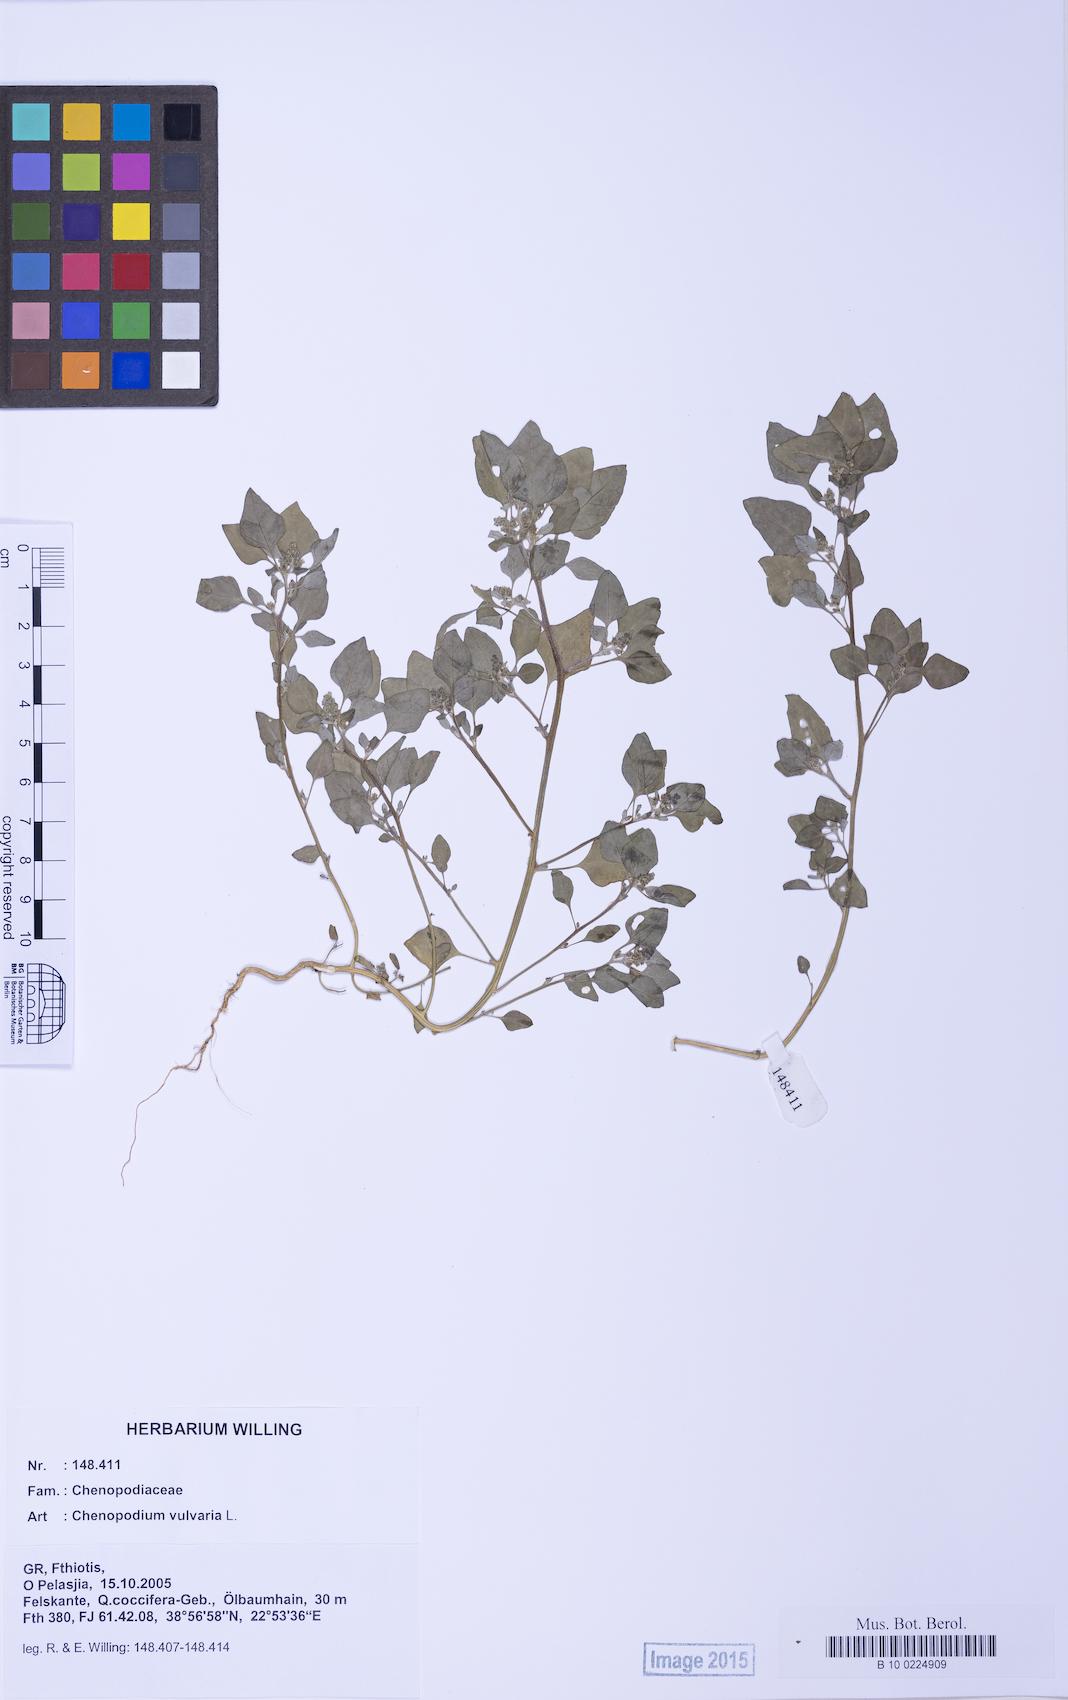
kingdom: Plantae
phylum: Tracheophyta
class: Magnoliopsida
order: Caryophyllales
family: Amaranthaceae
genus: Chenopodium
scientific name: Chenopodium vulvaria
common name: Stinking goosefoot
